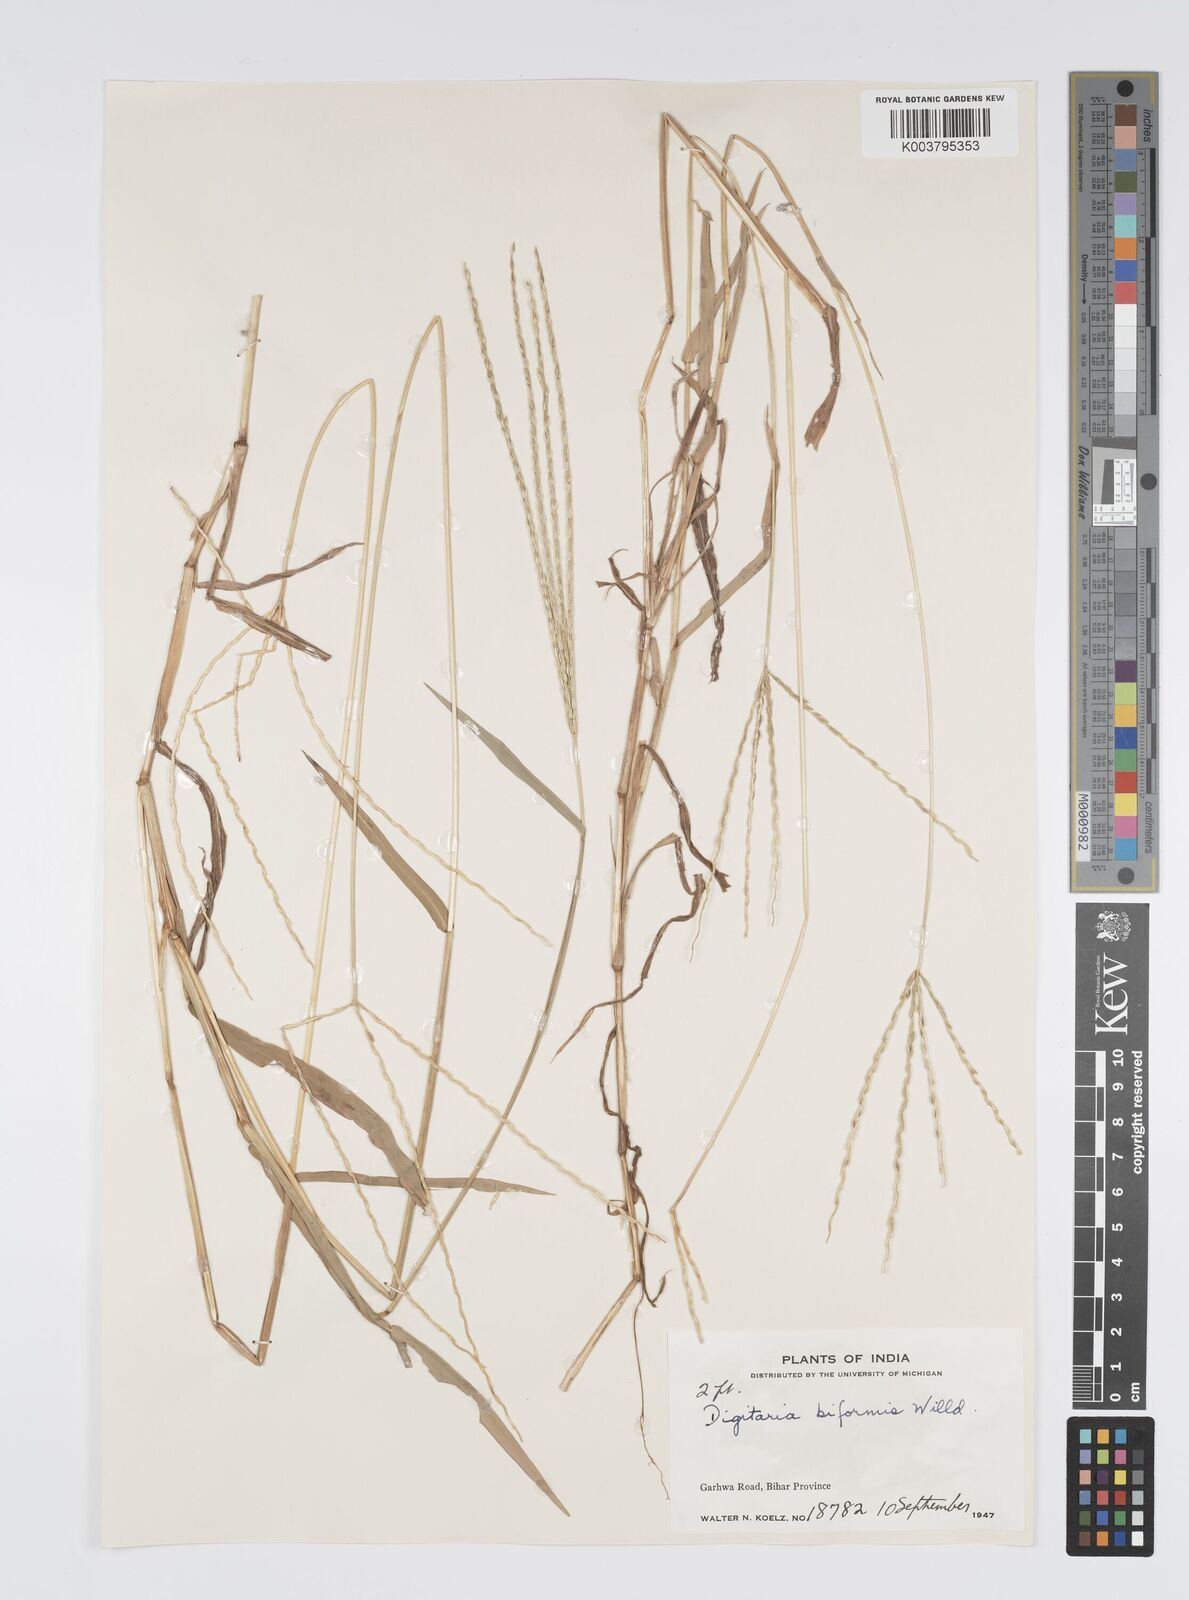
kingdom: Plantae
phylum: Tracheophyta
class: Liliopsida
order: Poales
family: Poaceae
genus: Digitaria
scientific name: Digitaria ciliaris
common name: Tropical finger-grass
